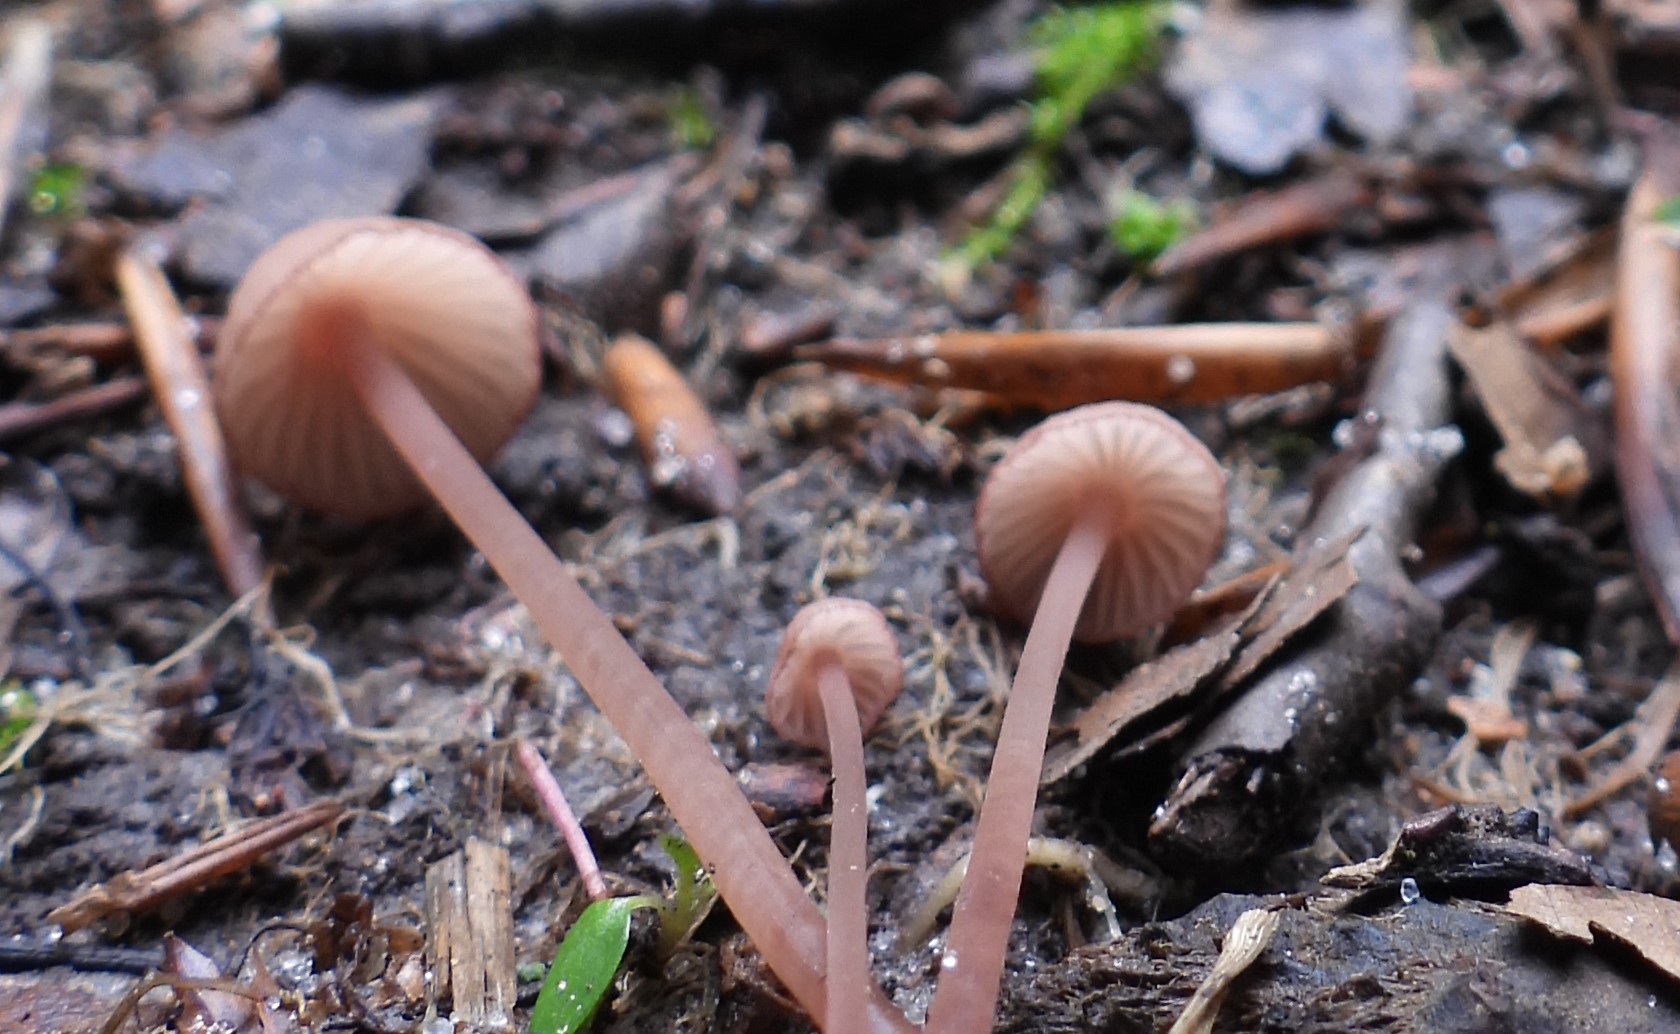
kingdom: Fungi
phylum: Basidiomycota
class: Agaricomycetes
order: Agaricales
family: Mycenaceae
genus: Mycena
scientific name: Mycena sanguinolenta
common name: rødmælket huesvamp
